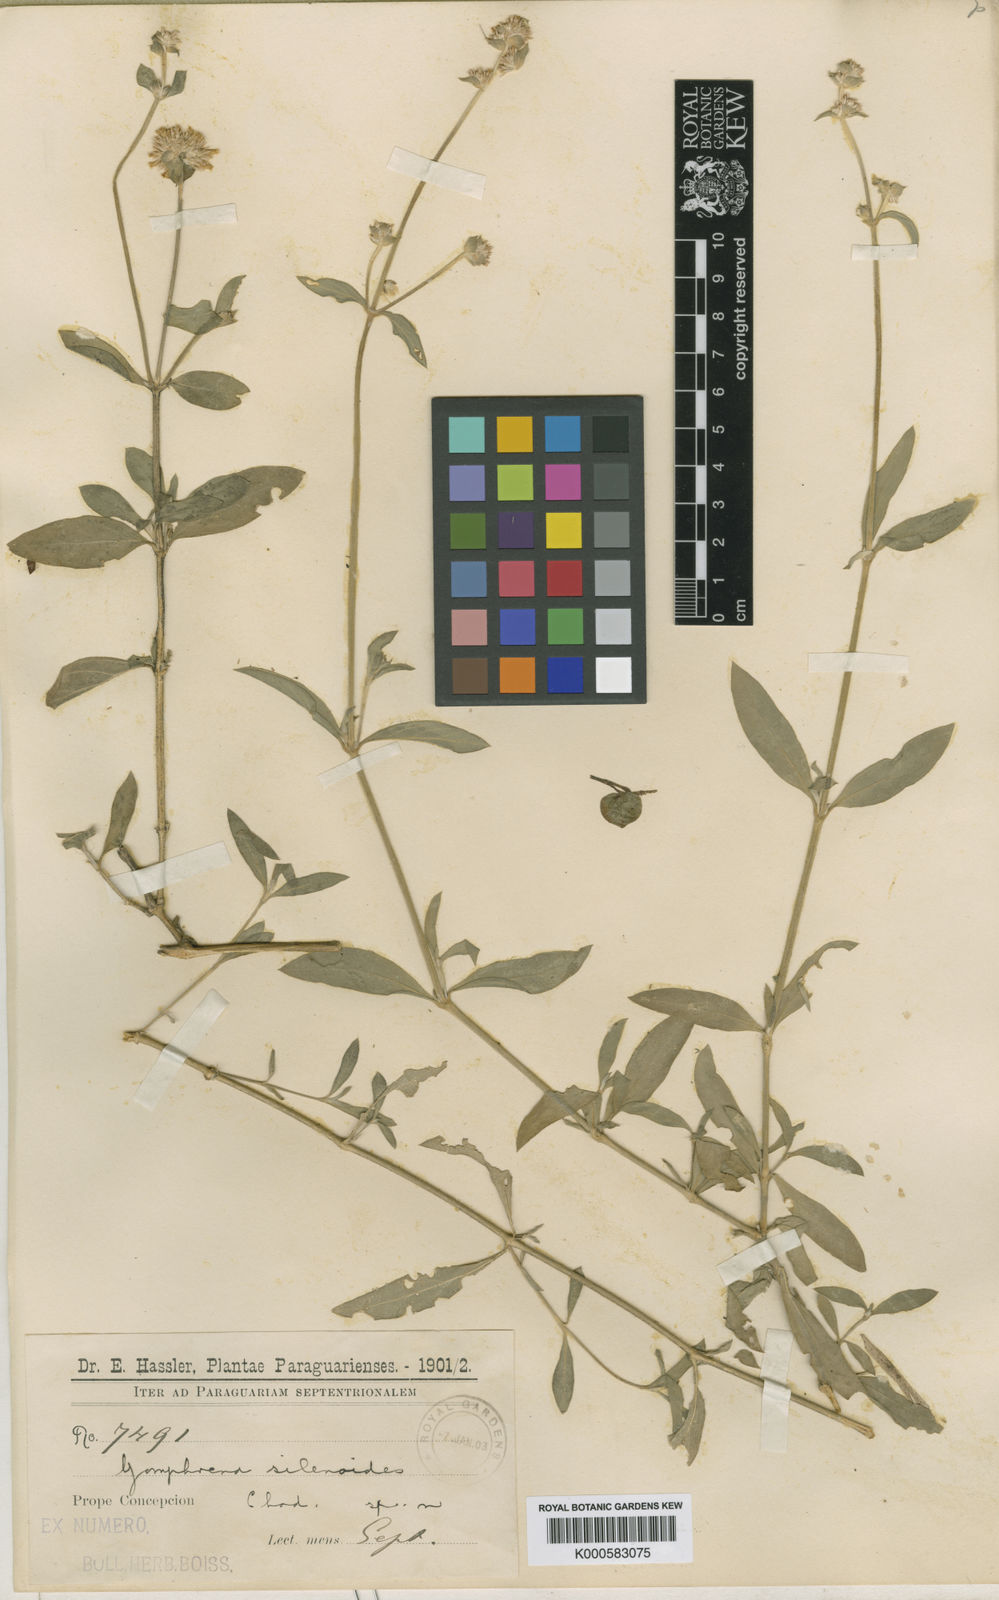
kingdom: Plantae
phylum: Tracheophyta
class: Magnoliopsida
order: Caryophyllales
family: Amaranthaceae
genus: Gomphrena
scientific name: Gomphrena perennis
